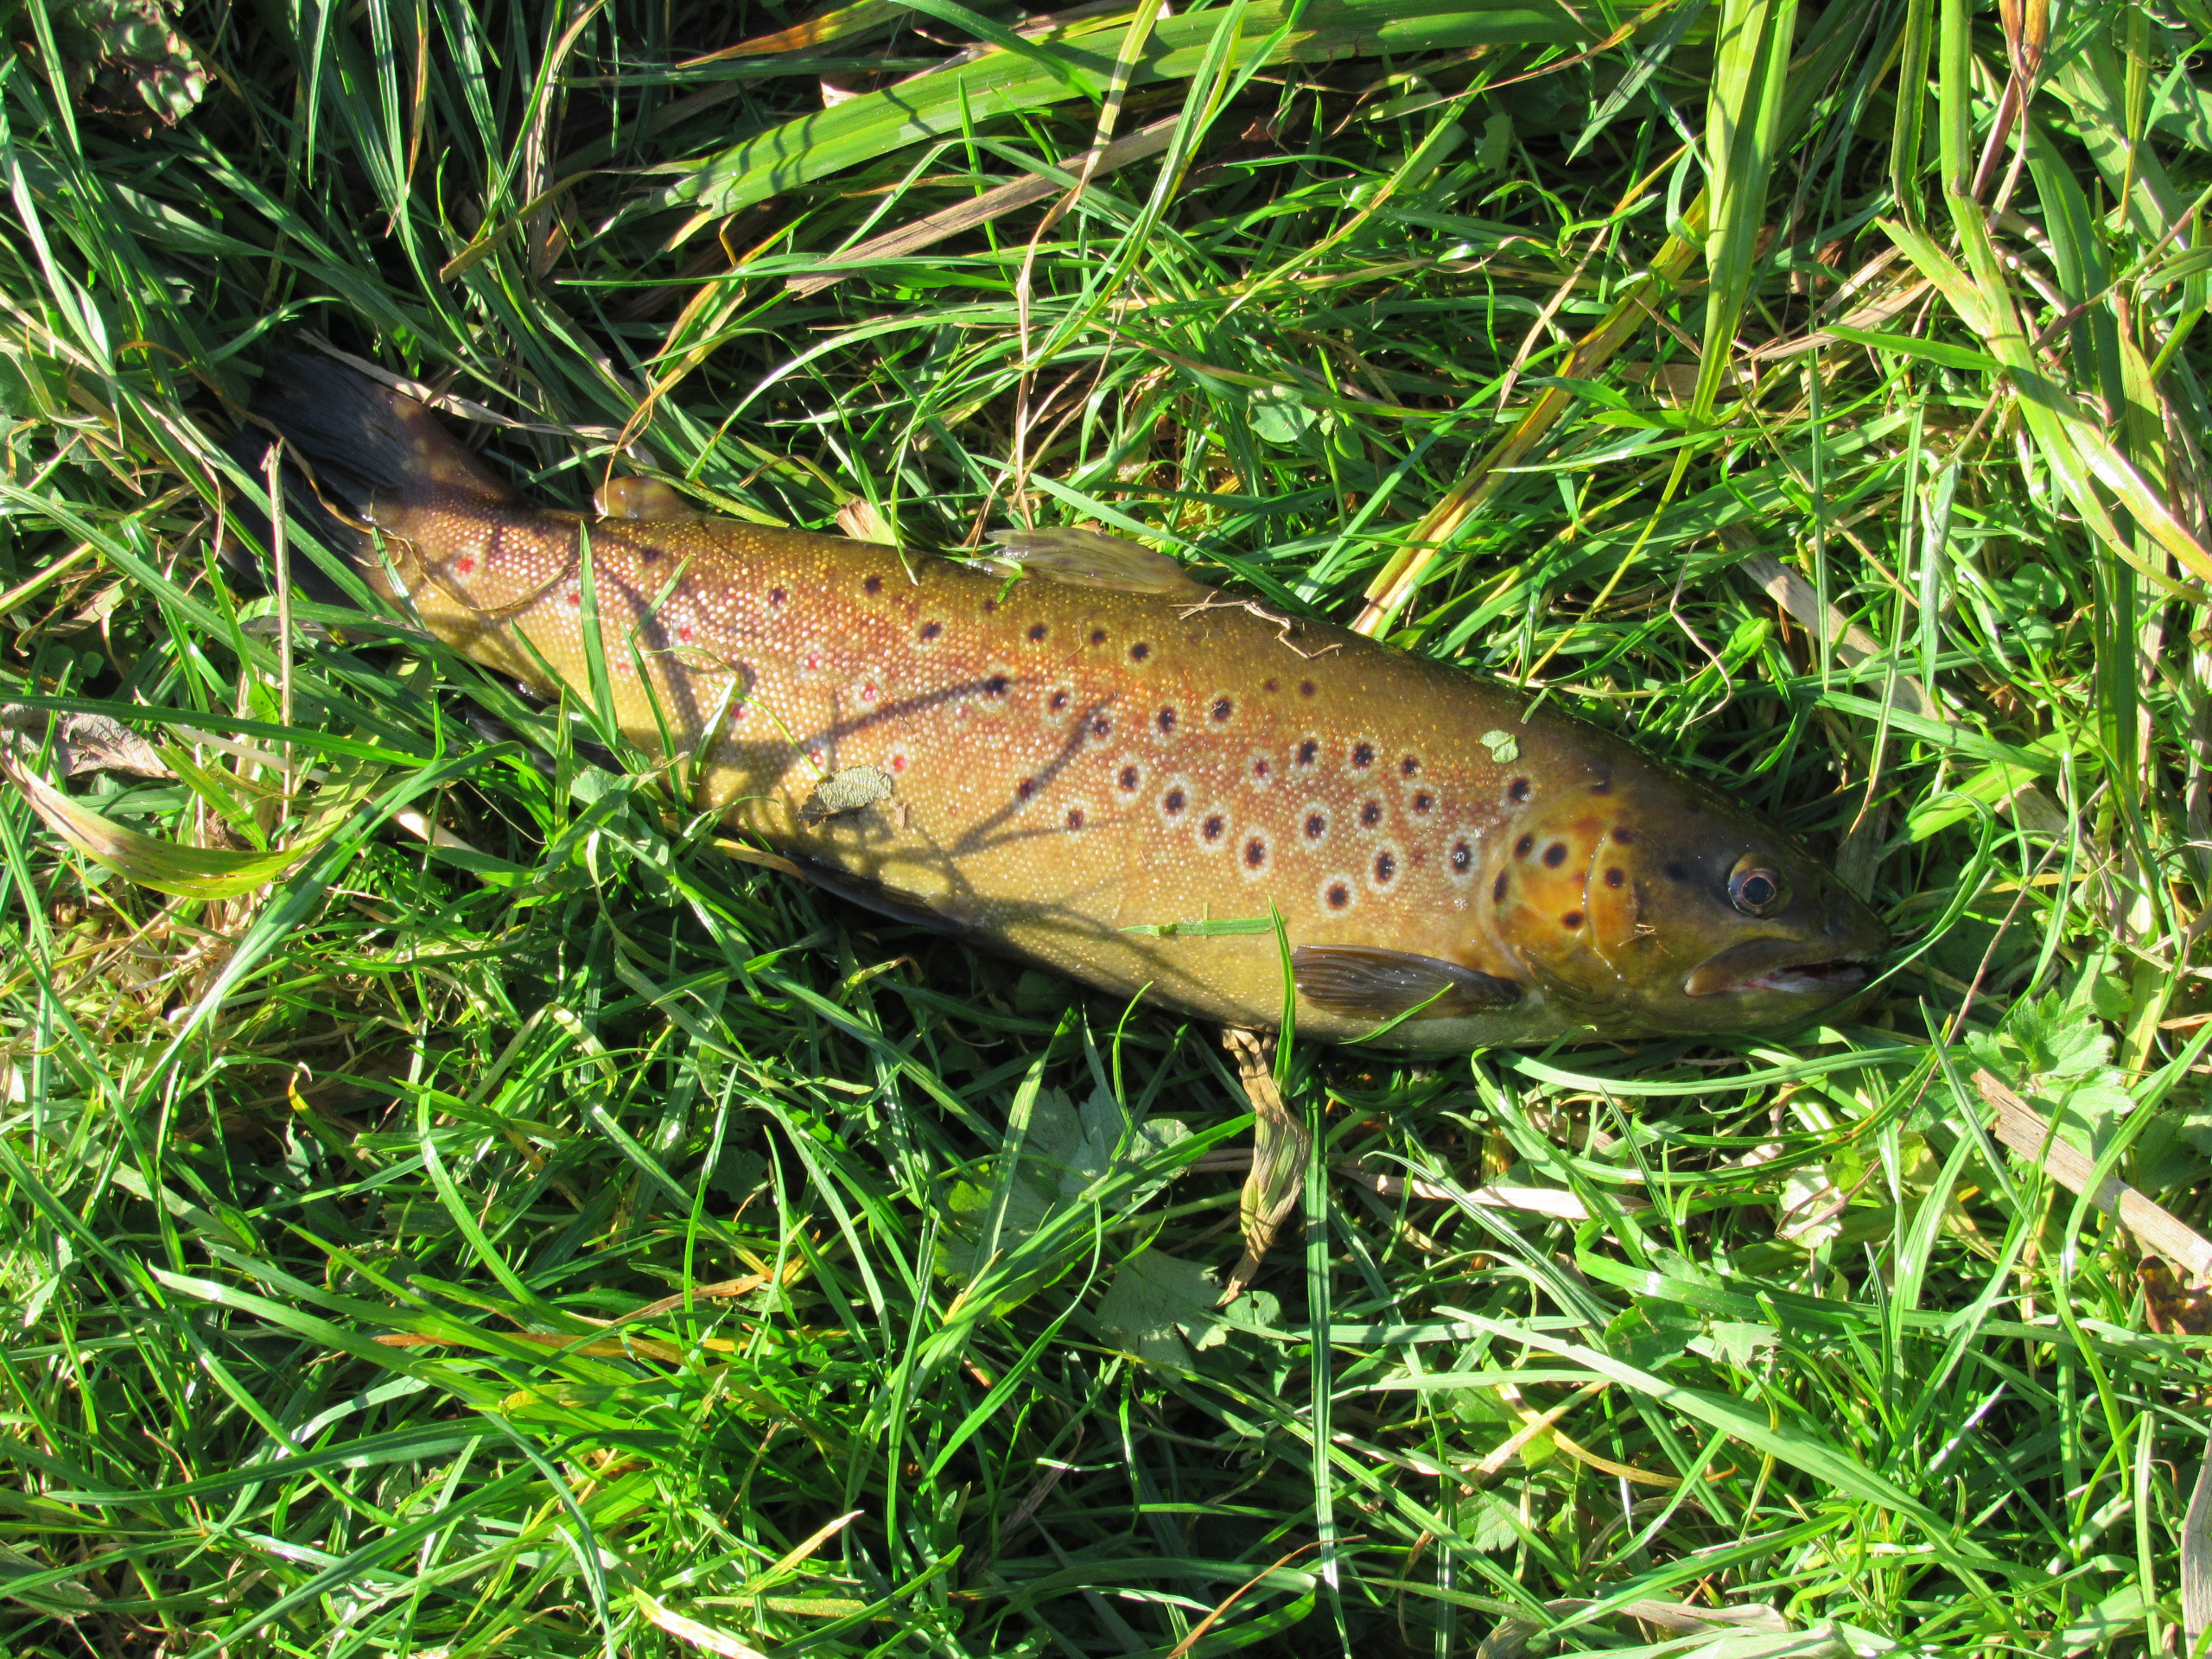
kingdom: Animalia
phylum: Chordata
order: Salmoniformes
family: Salmonidae
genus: Salmo
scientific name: Salmo trutta
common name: Ørred
